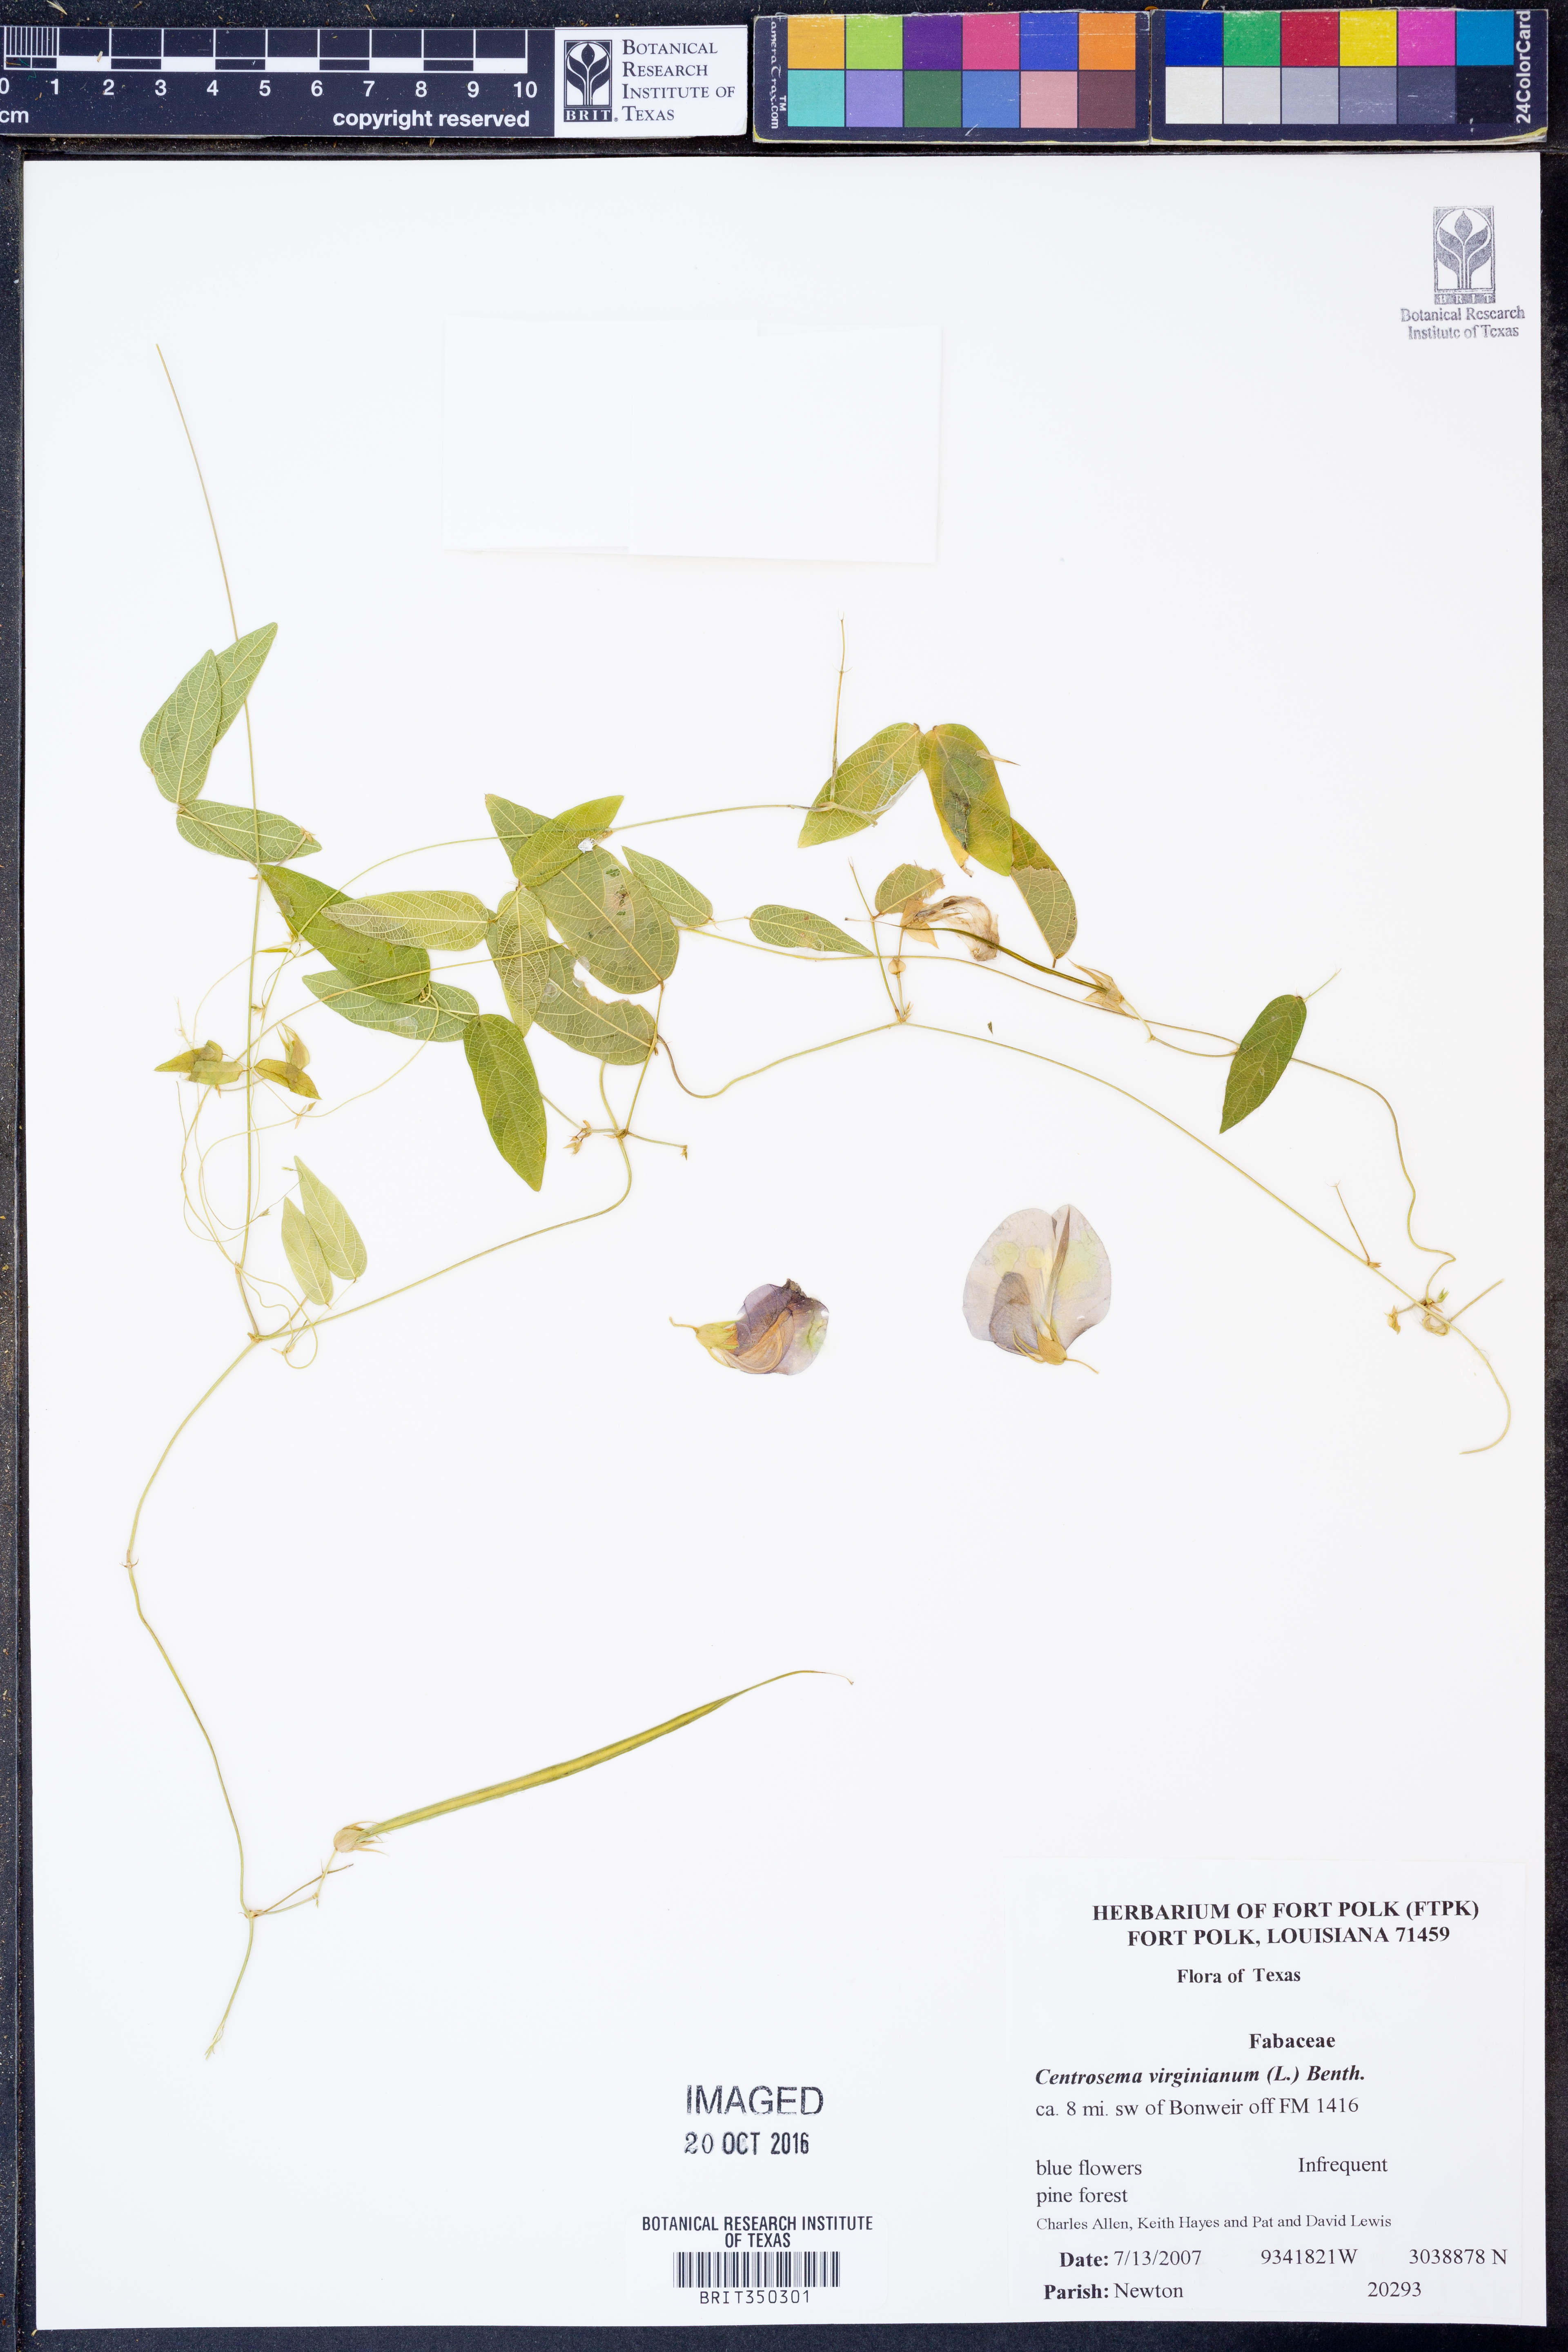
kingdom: Plantae
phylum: Tracheophyta
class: Magnoliopsida
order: Fabales
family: Fabaceae
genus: Centrosema
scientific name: Centrosema virginianum
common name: Butterfly-pea
